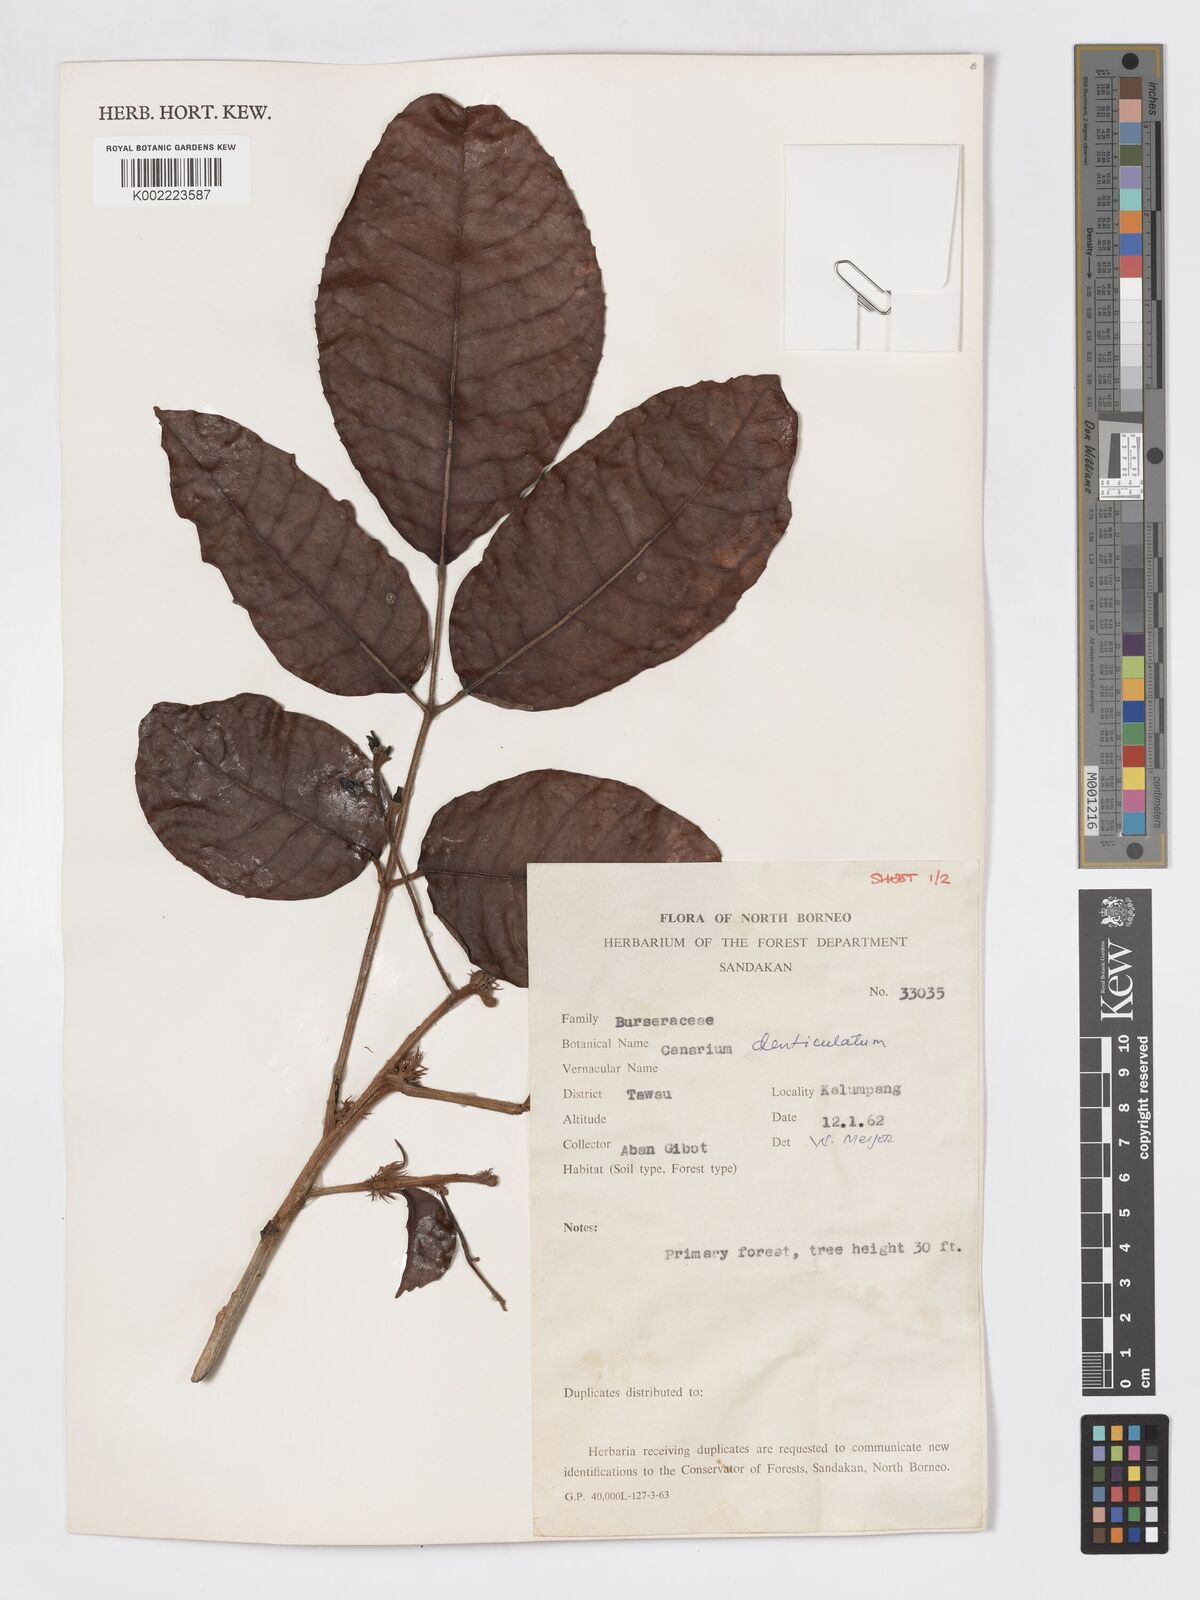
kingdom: Plantae
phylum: Tracheophyta
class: Magnoliopsida
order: Sapindales
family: Burseraceae
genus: Canarium
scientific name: Canarium denticulatum
